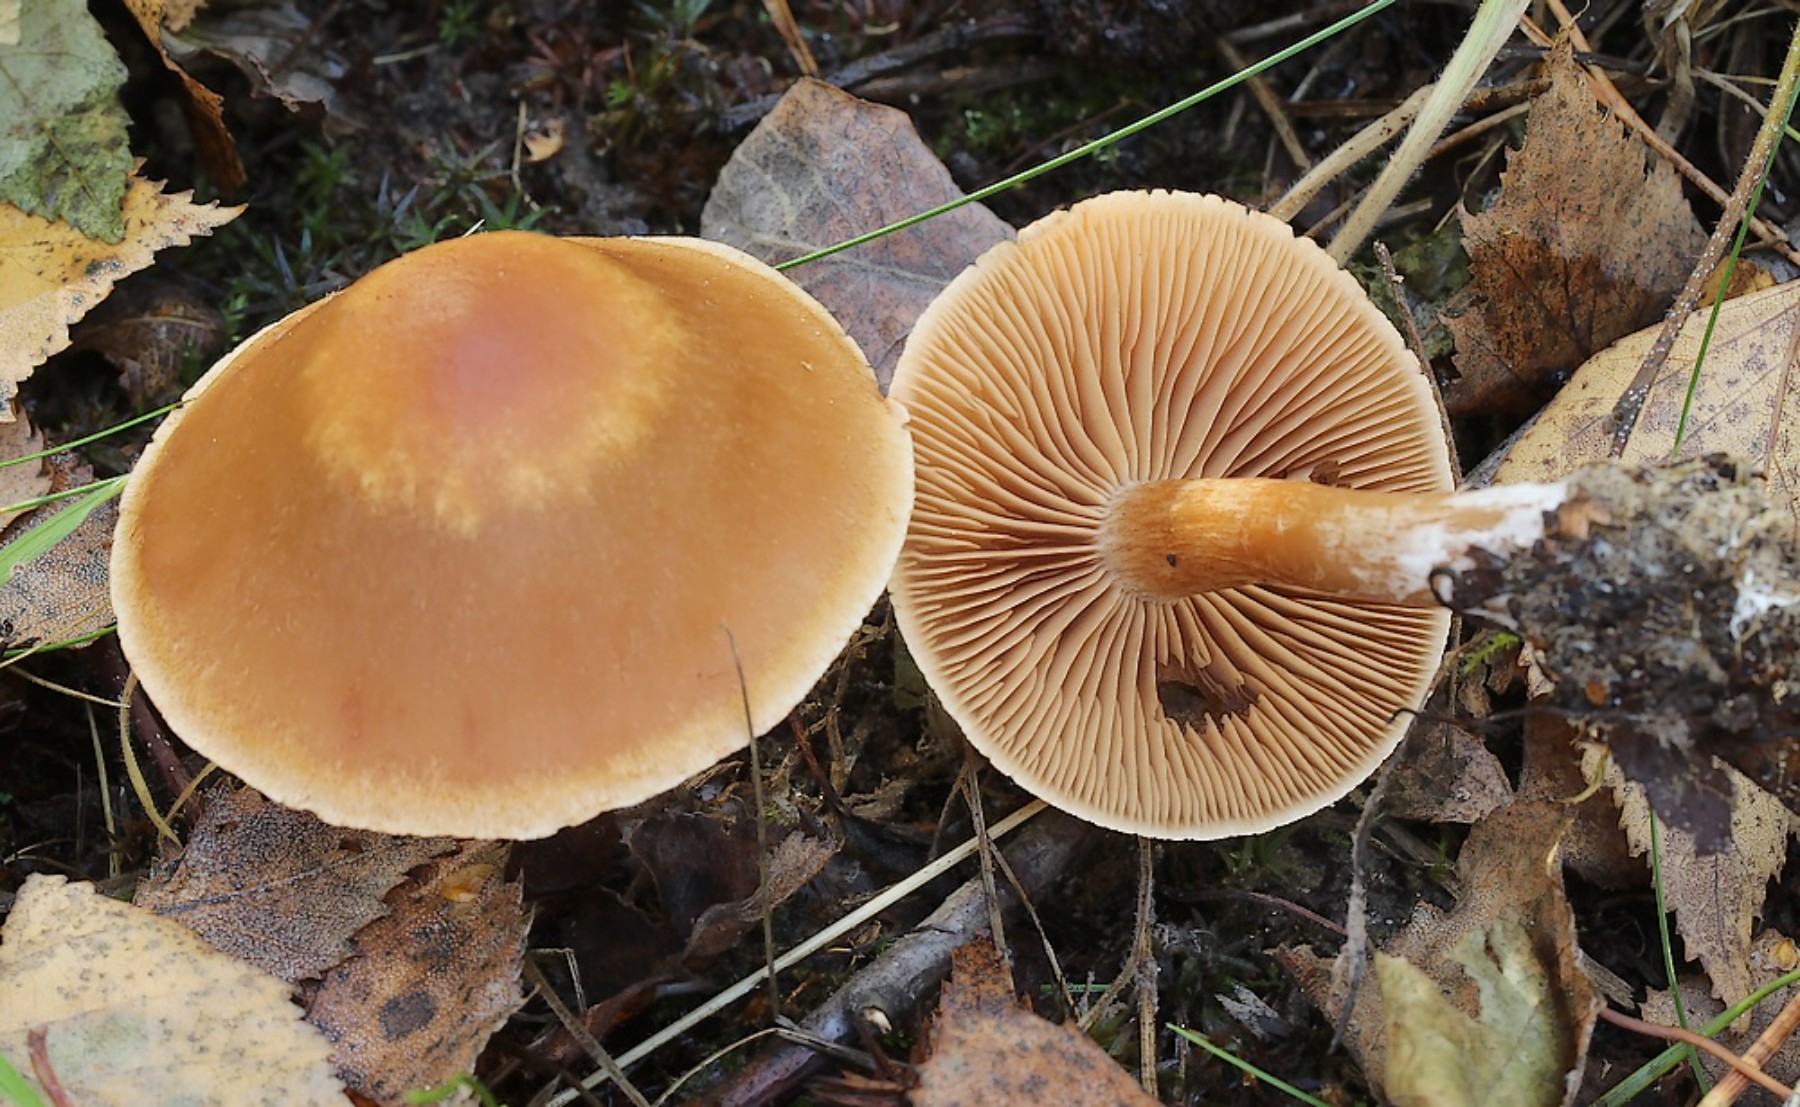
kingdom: Fungi
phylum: Basidiomycota
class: Agaricomycetes
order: Agaricales
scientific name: Agaricales
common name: champignonordenen
